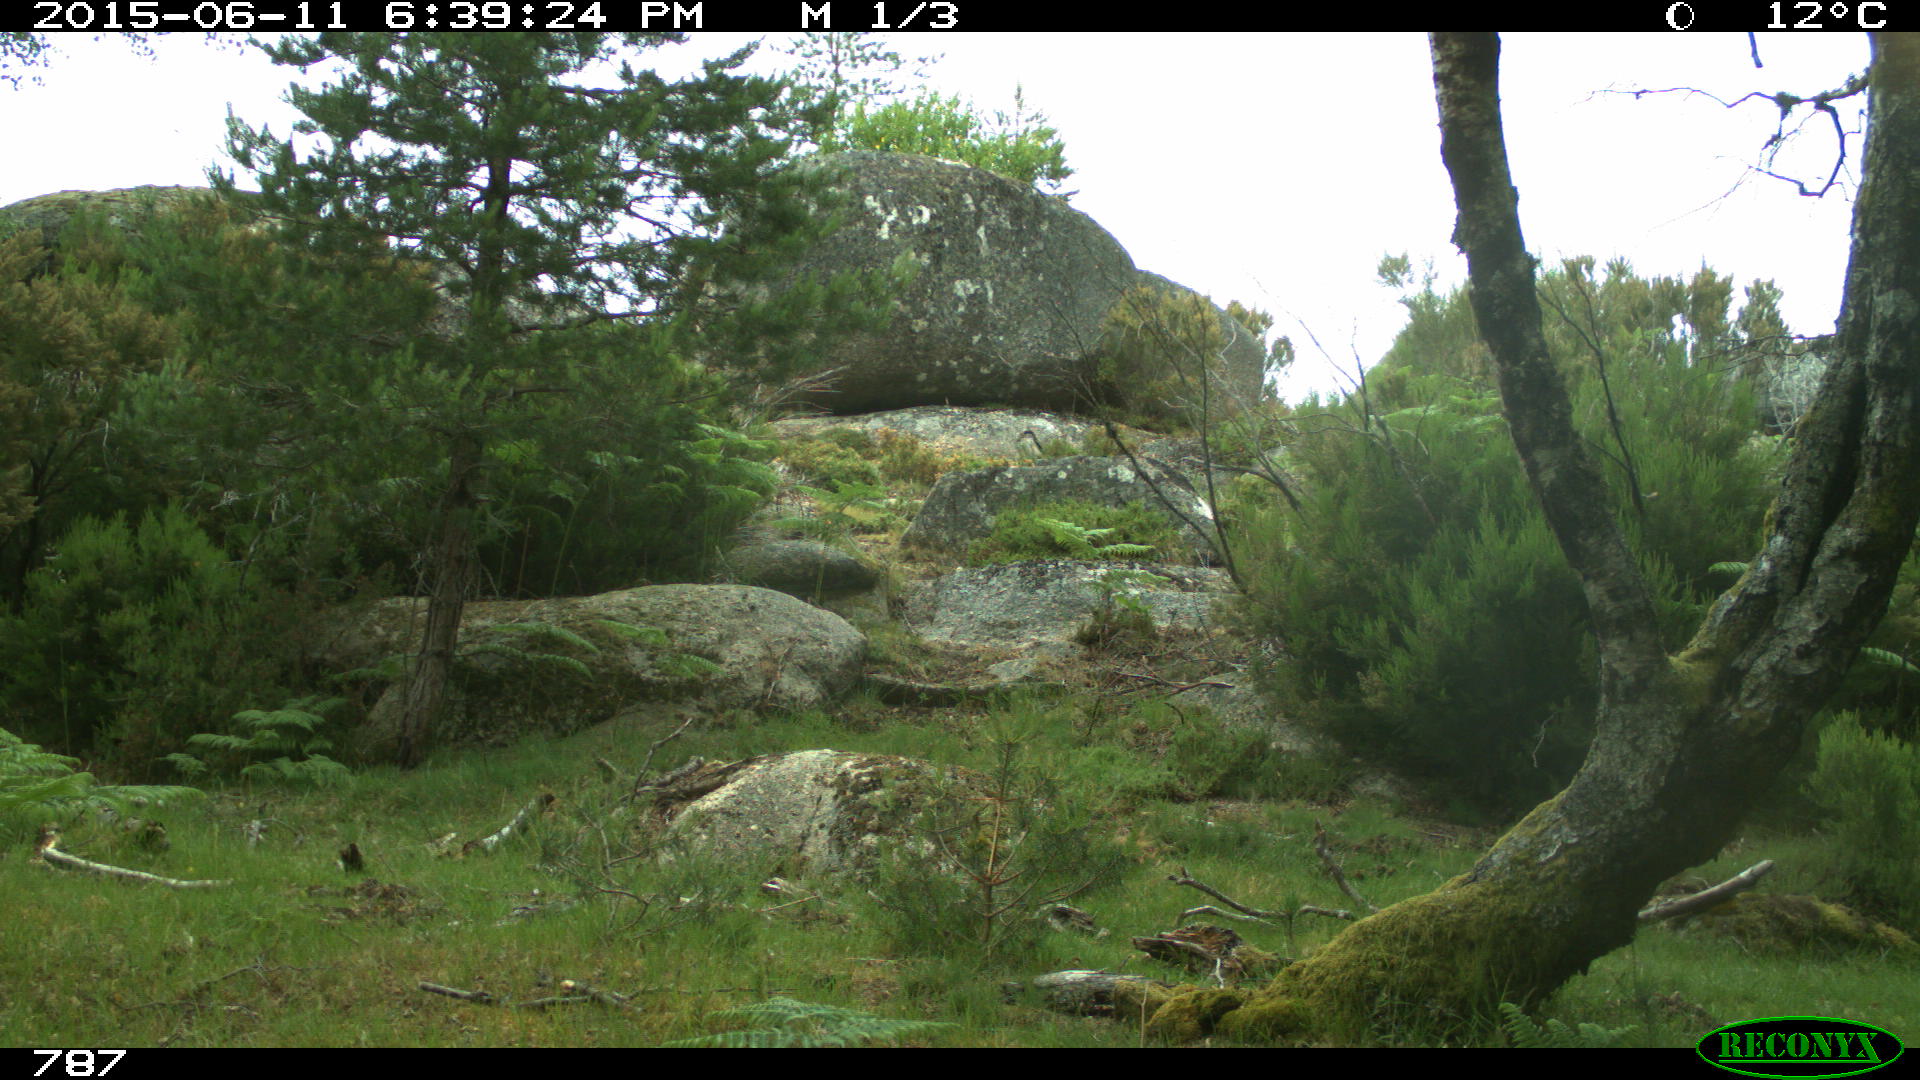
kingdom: Animalia
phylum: Chordata
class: Mammalia
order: Perissodactyla
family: Equidae
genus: Equus
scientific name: Equus caballus
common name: Horse
